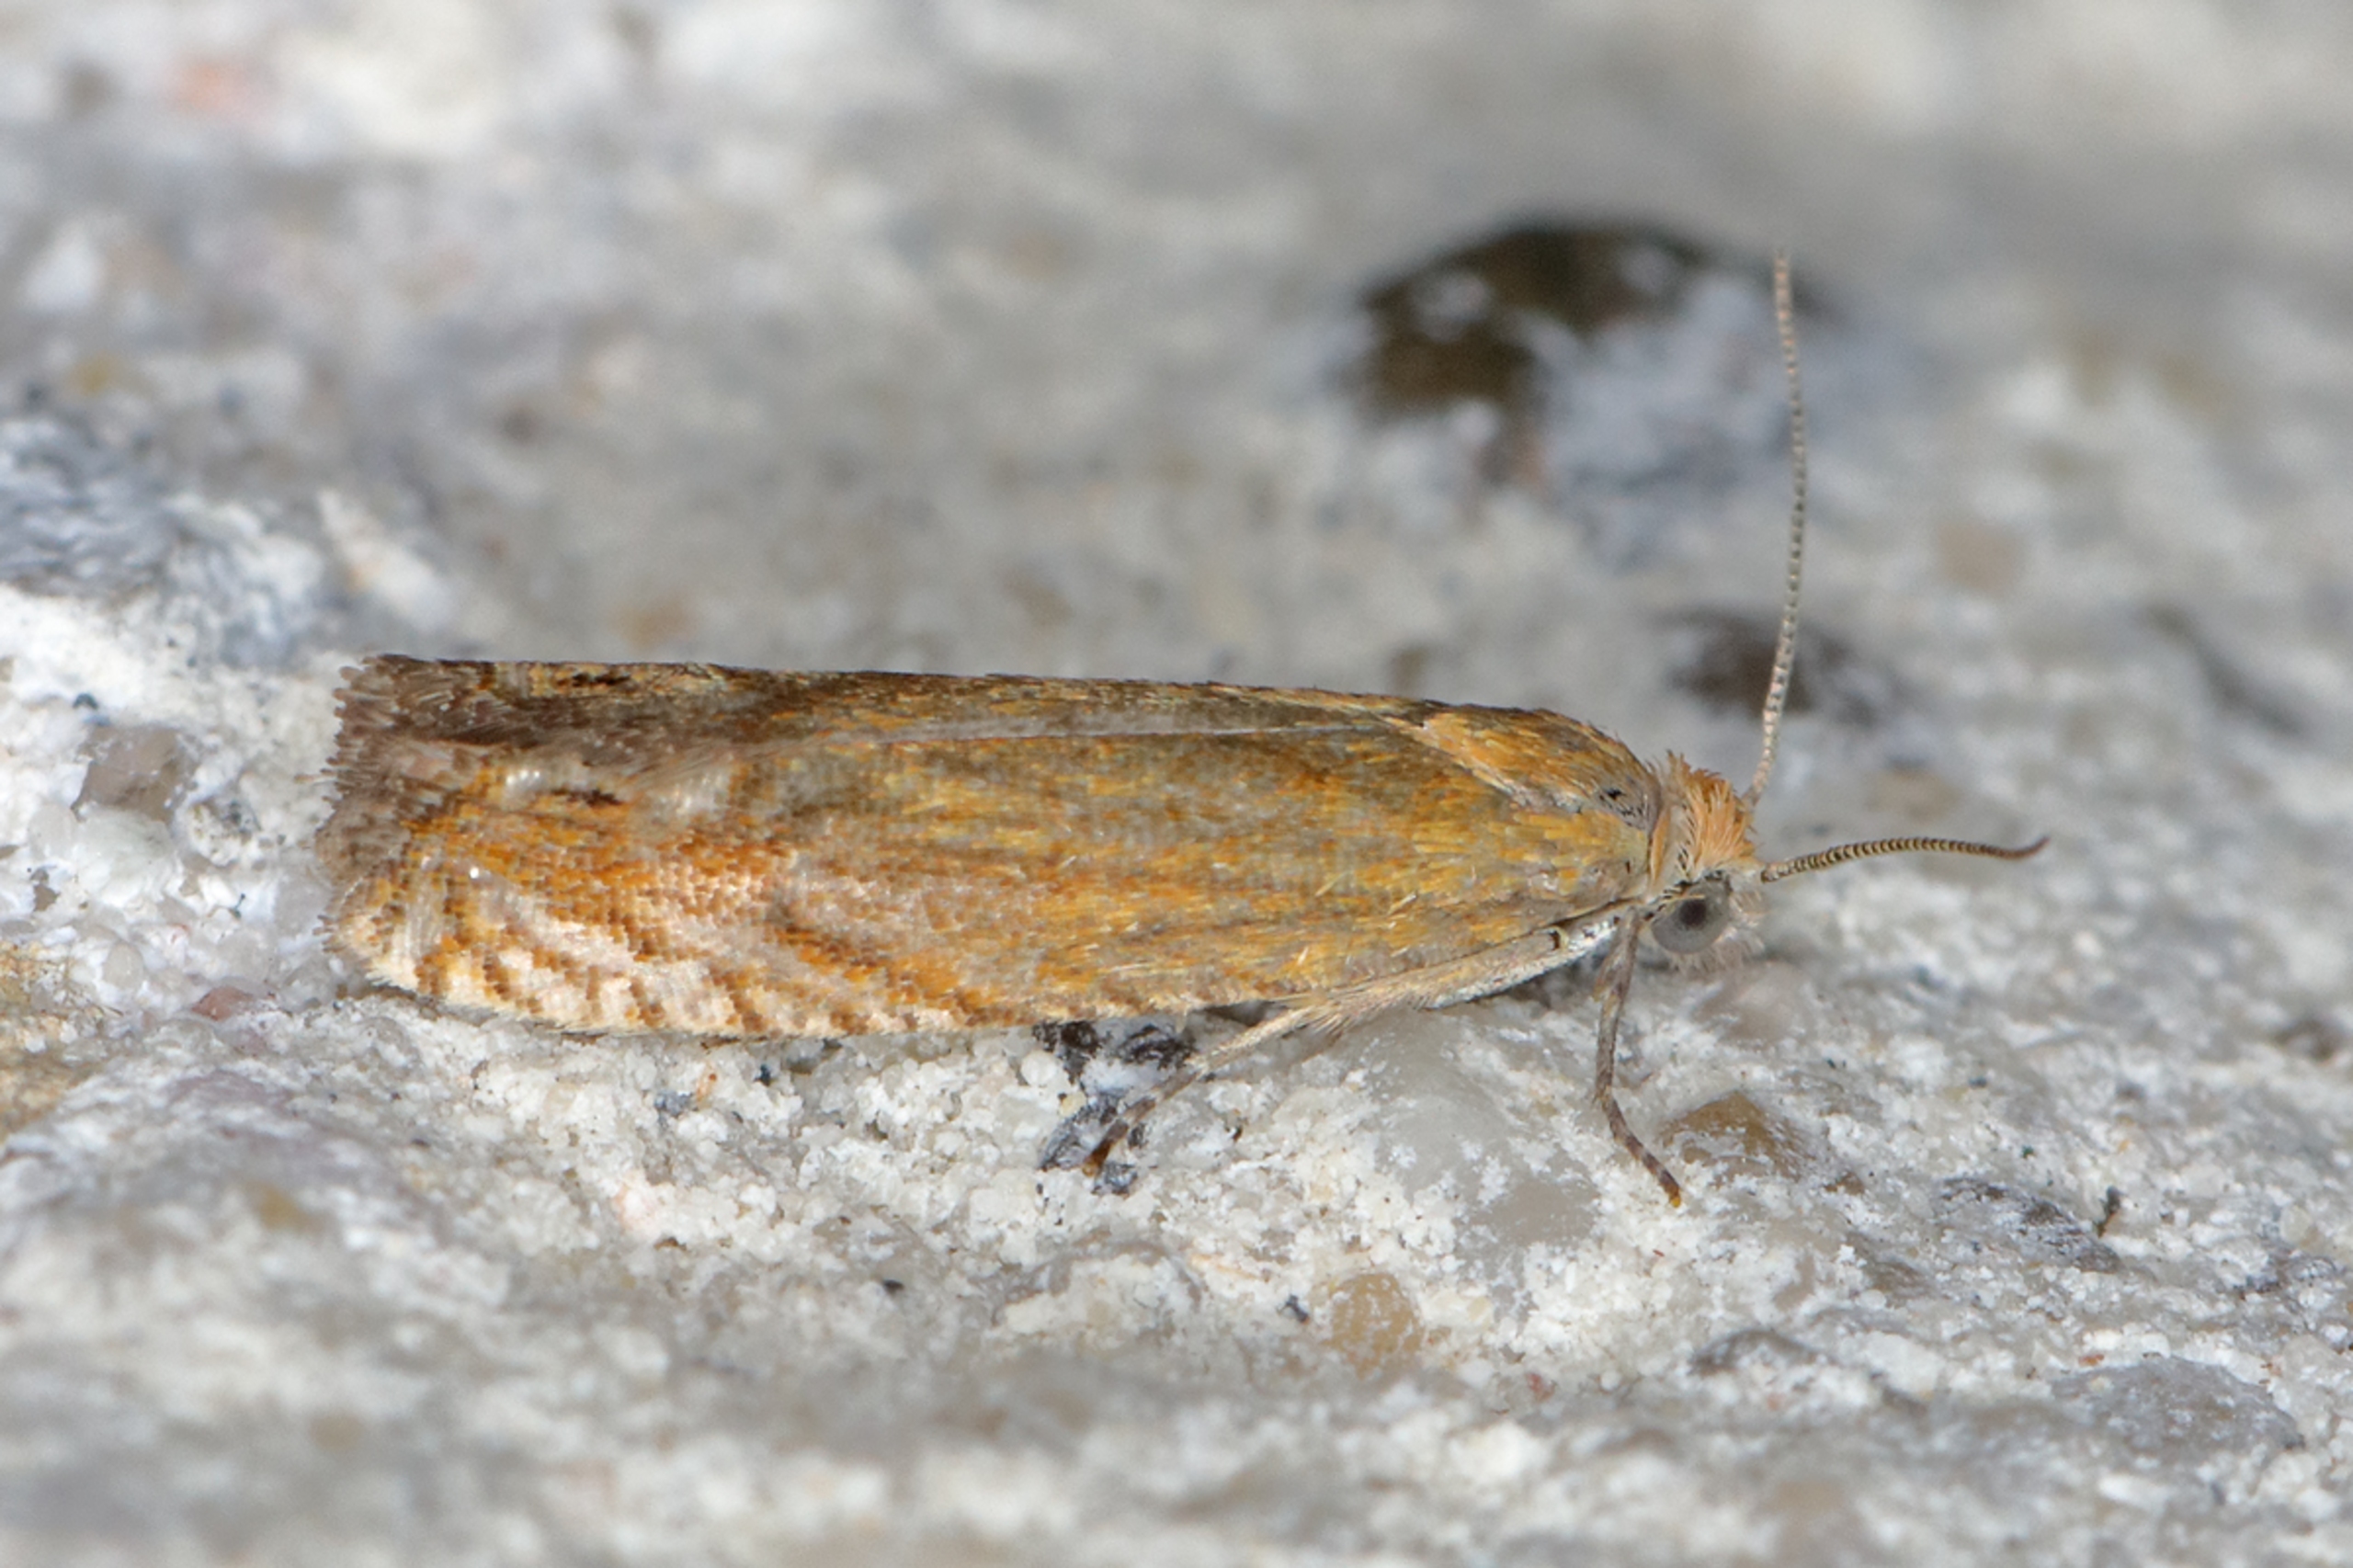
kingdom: Animalia
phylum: Arthropoda
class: Insecta
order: Lepidoptera
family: Tortricidae
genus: Lathronympha
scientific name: Lathronympha strigana
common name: Perikonvikler
